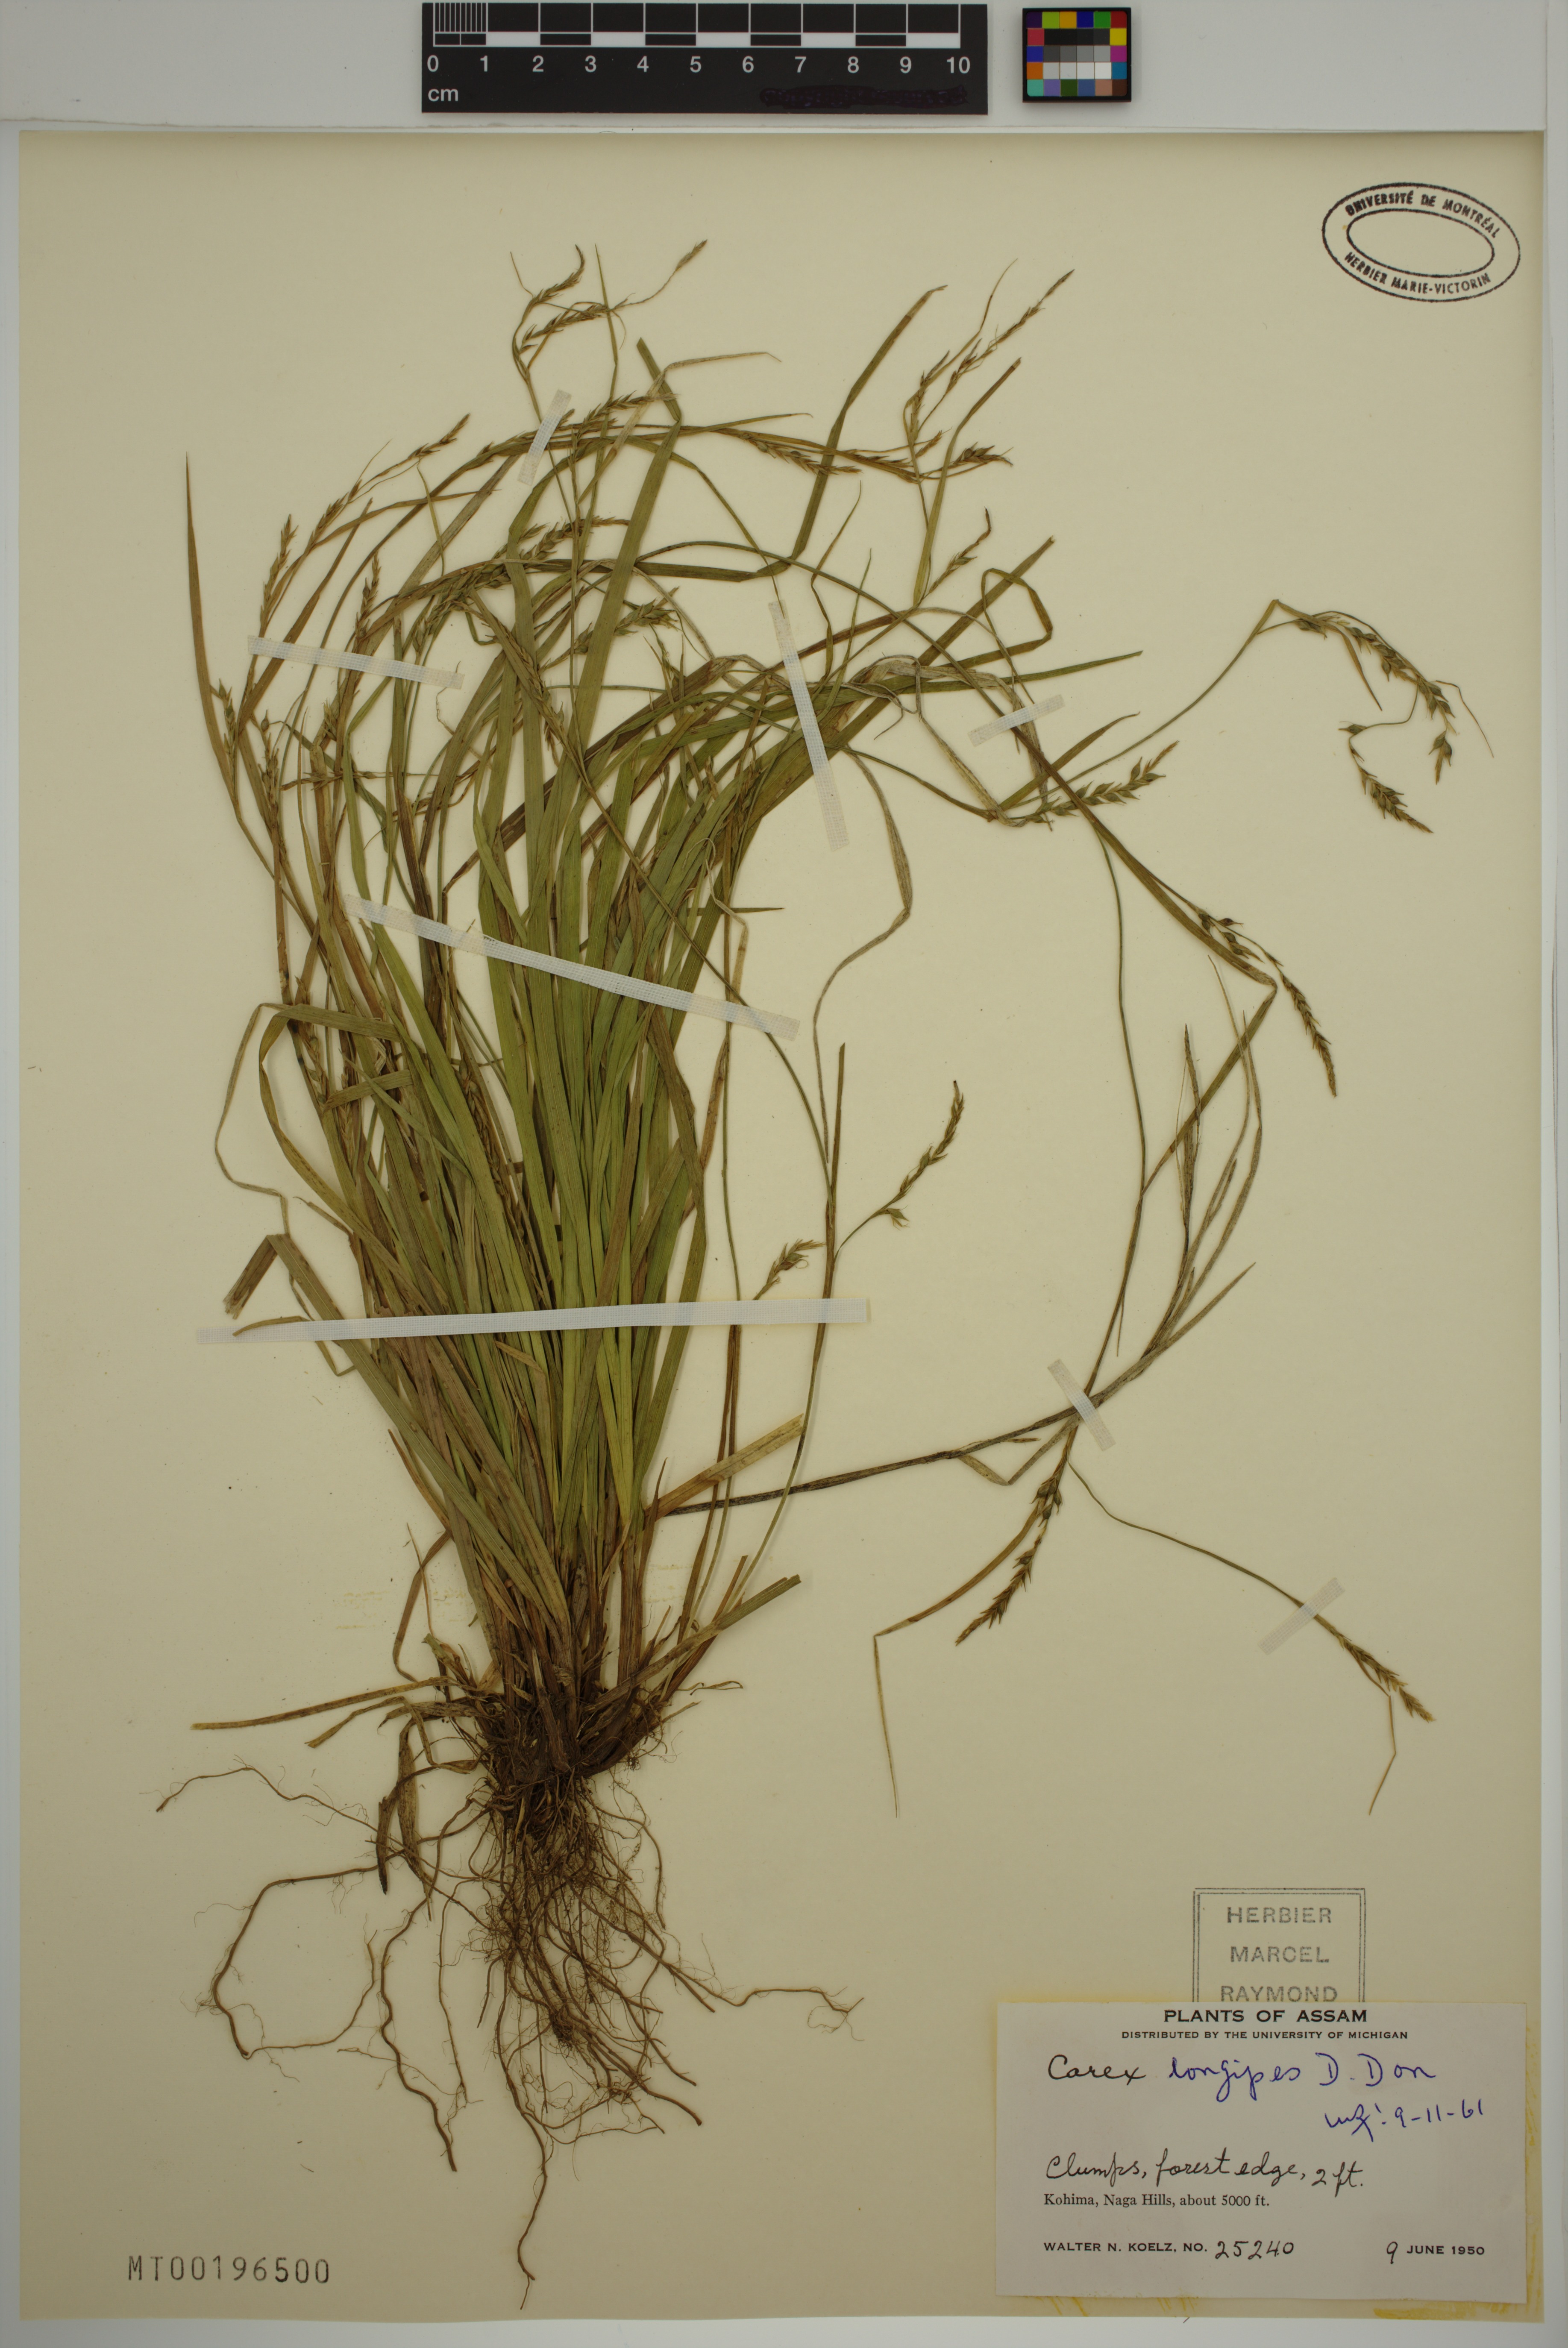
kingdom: Plantae
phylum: Tracheophyta
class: Liliopsida
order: Poales
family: Cyperaceae
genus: Carex
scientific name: Carex longipes
